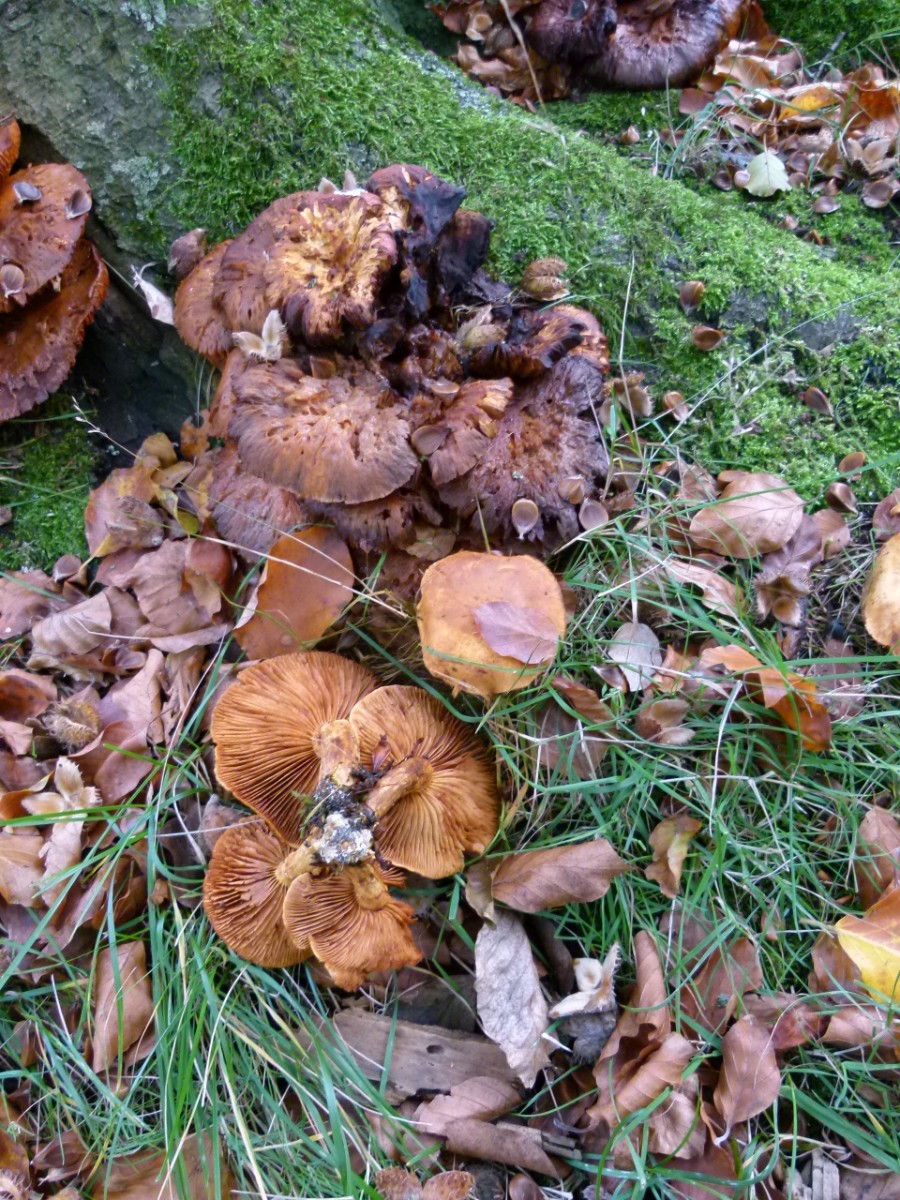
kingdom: Fungi
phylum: Basidiomycota
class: Agaricomycetes
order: Agaricales
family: Hymenogastraceae
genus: Gymnopilus
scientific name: Gymnopilus spectabilis
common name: fibret flammehat
